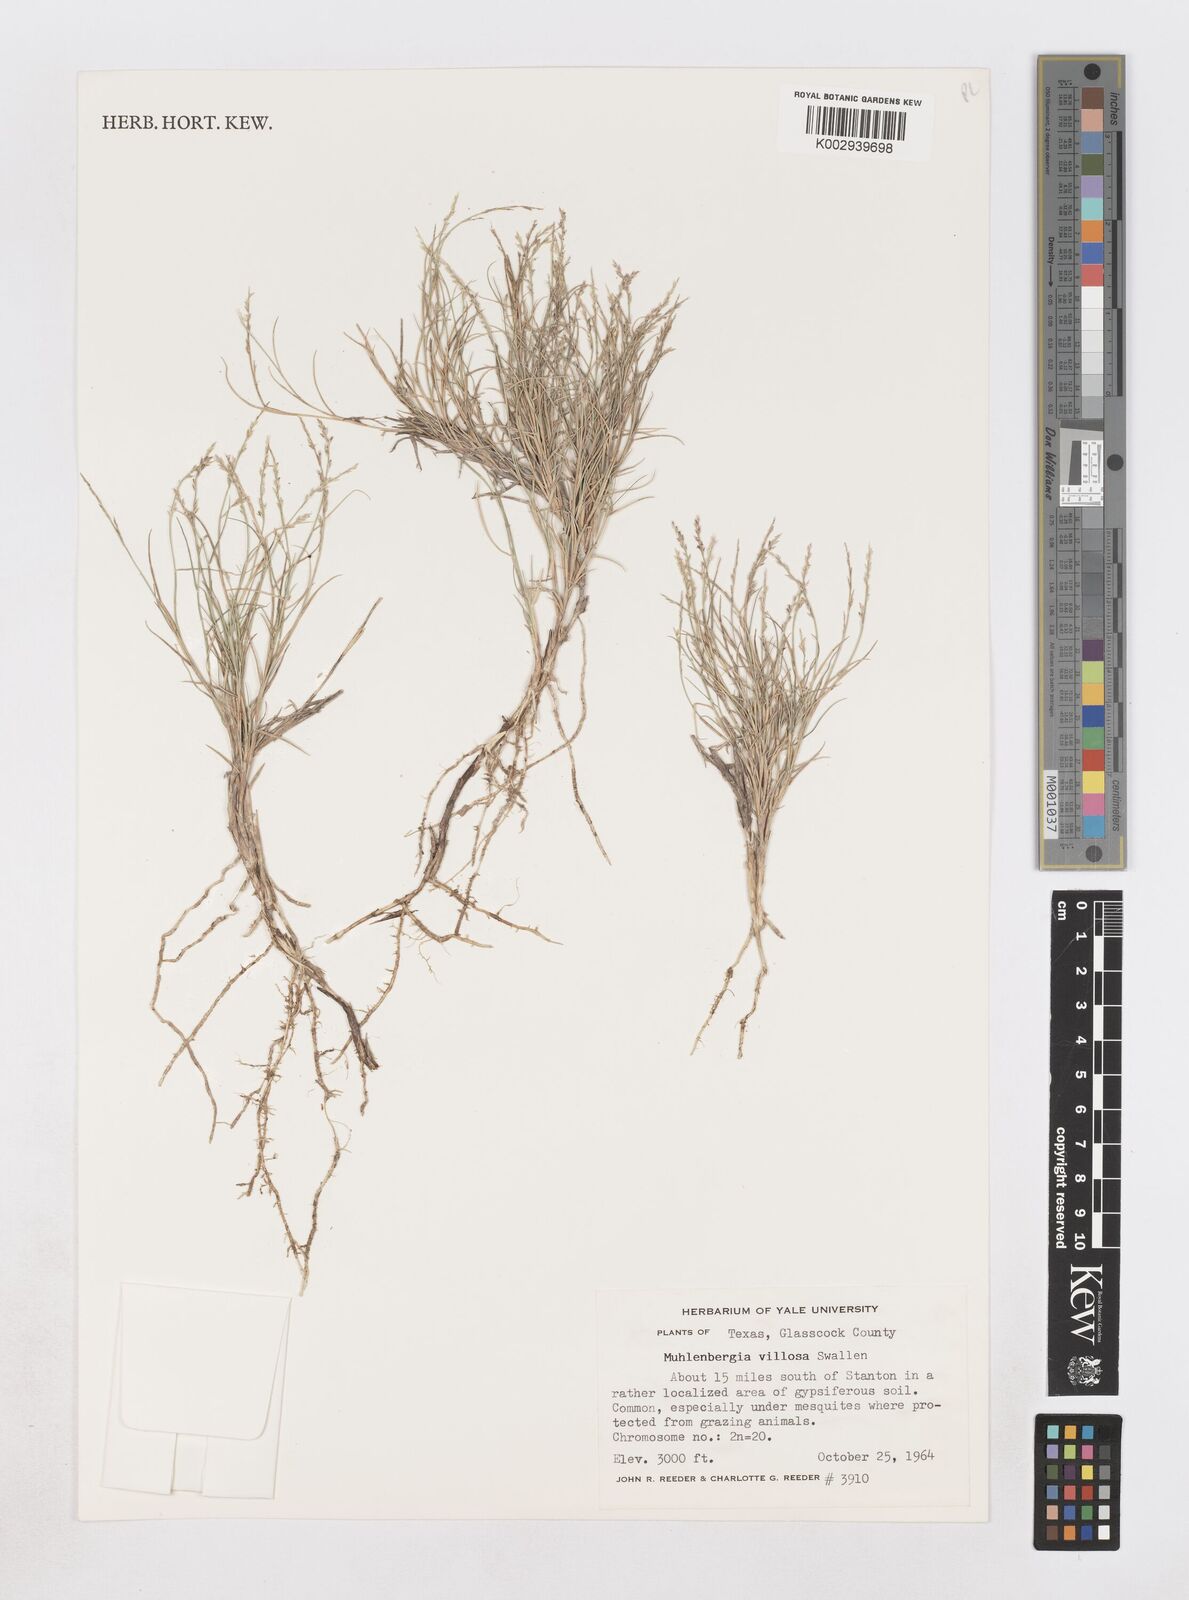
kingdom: Plantae
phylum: Tracheophyta
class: Liliopsida
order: Poales
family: Poaceae
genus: Muhlenbergia
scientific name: Muhlenbergia villiflora
